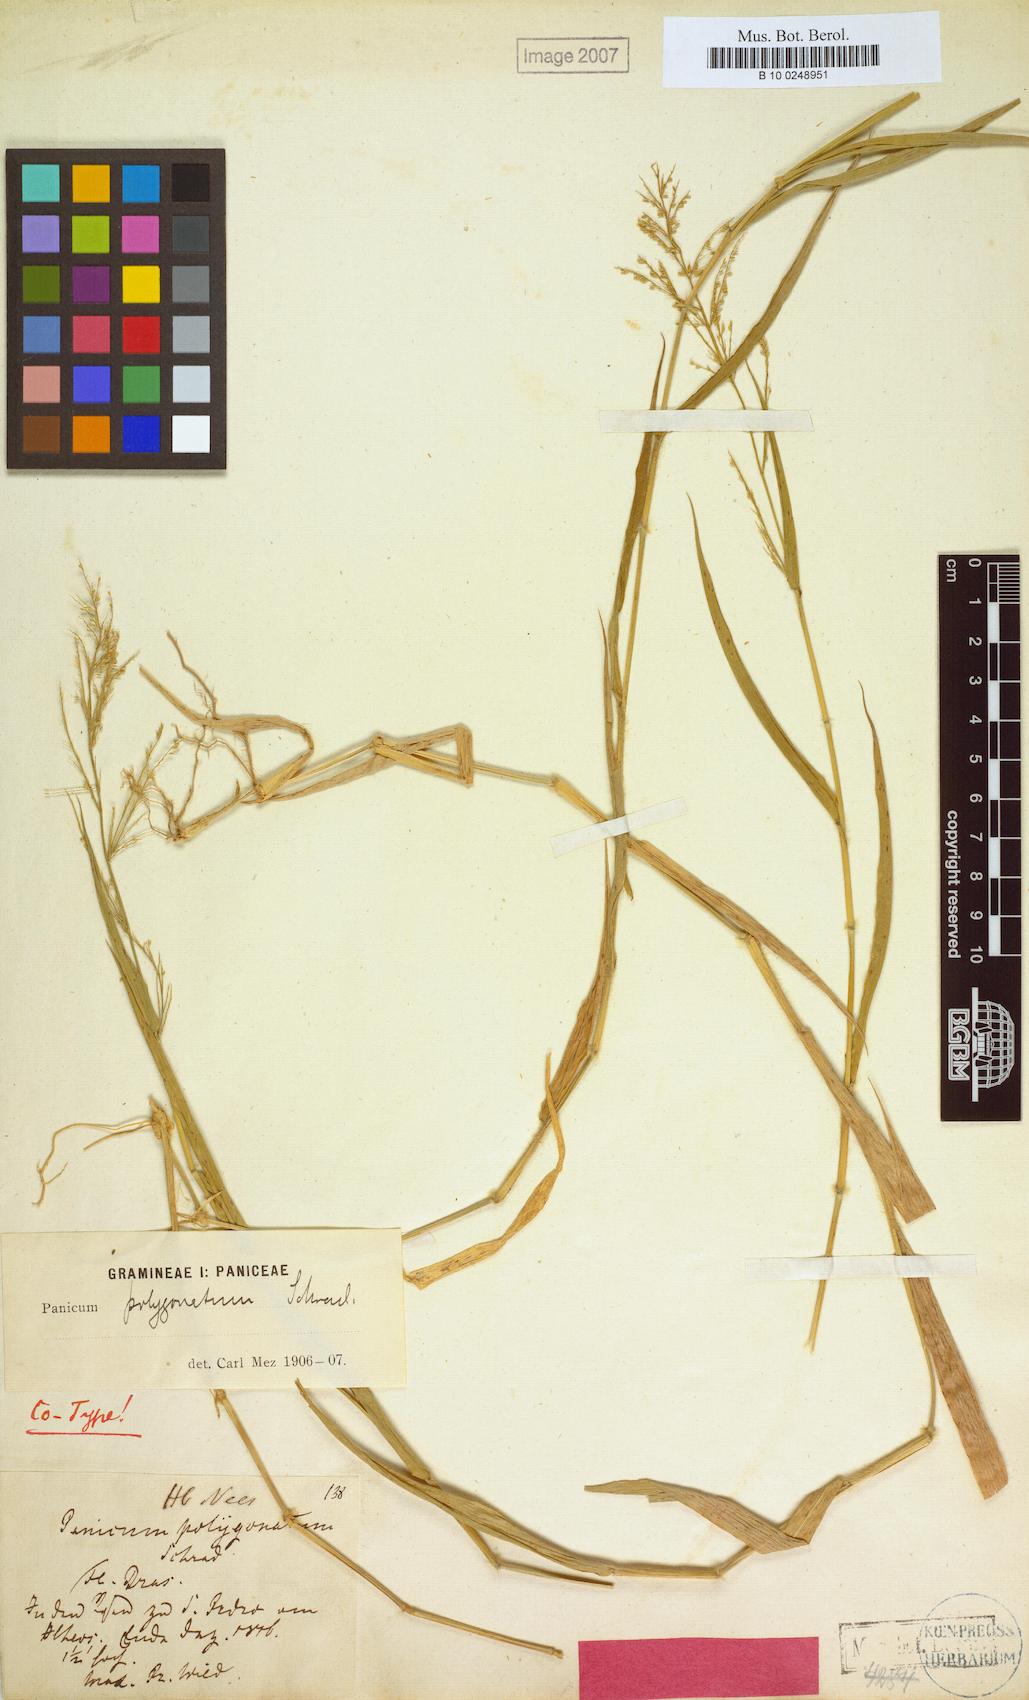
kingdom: Plantae
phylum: Tracheophyta
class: Liliopsida
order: Poales
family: Poaceae
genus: Rugoloa
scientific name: Rugoloa polygonata
